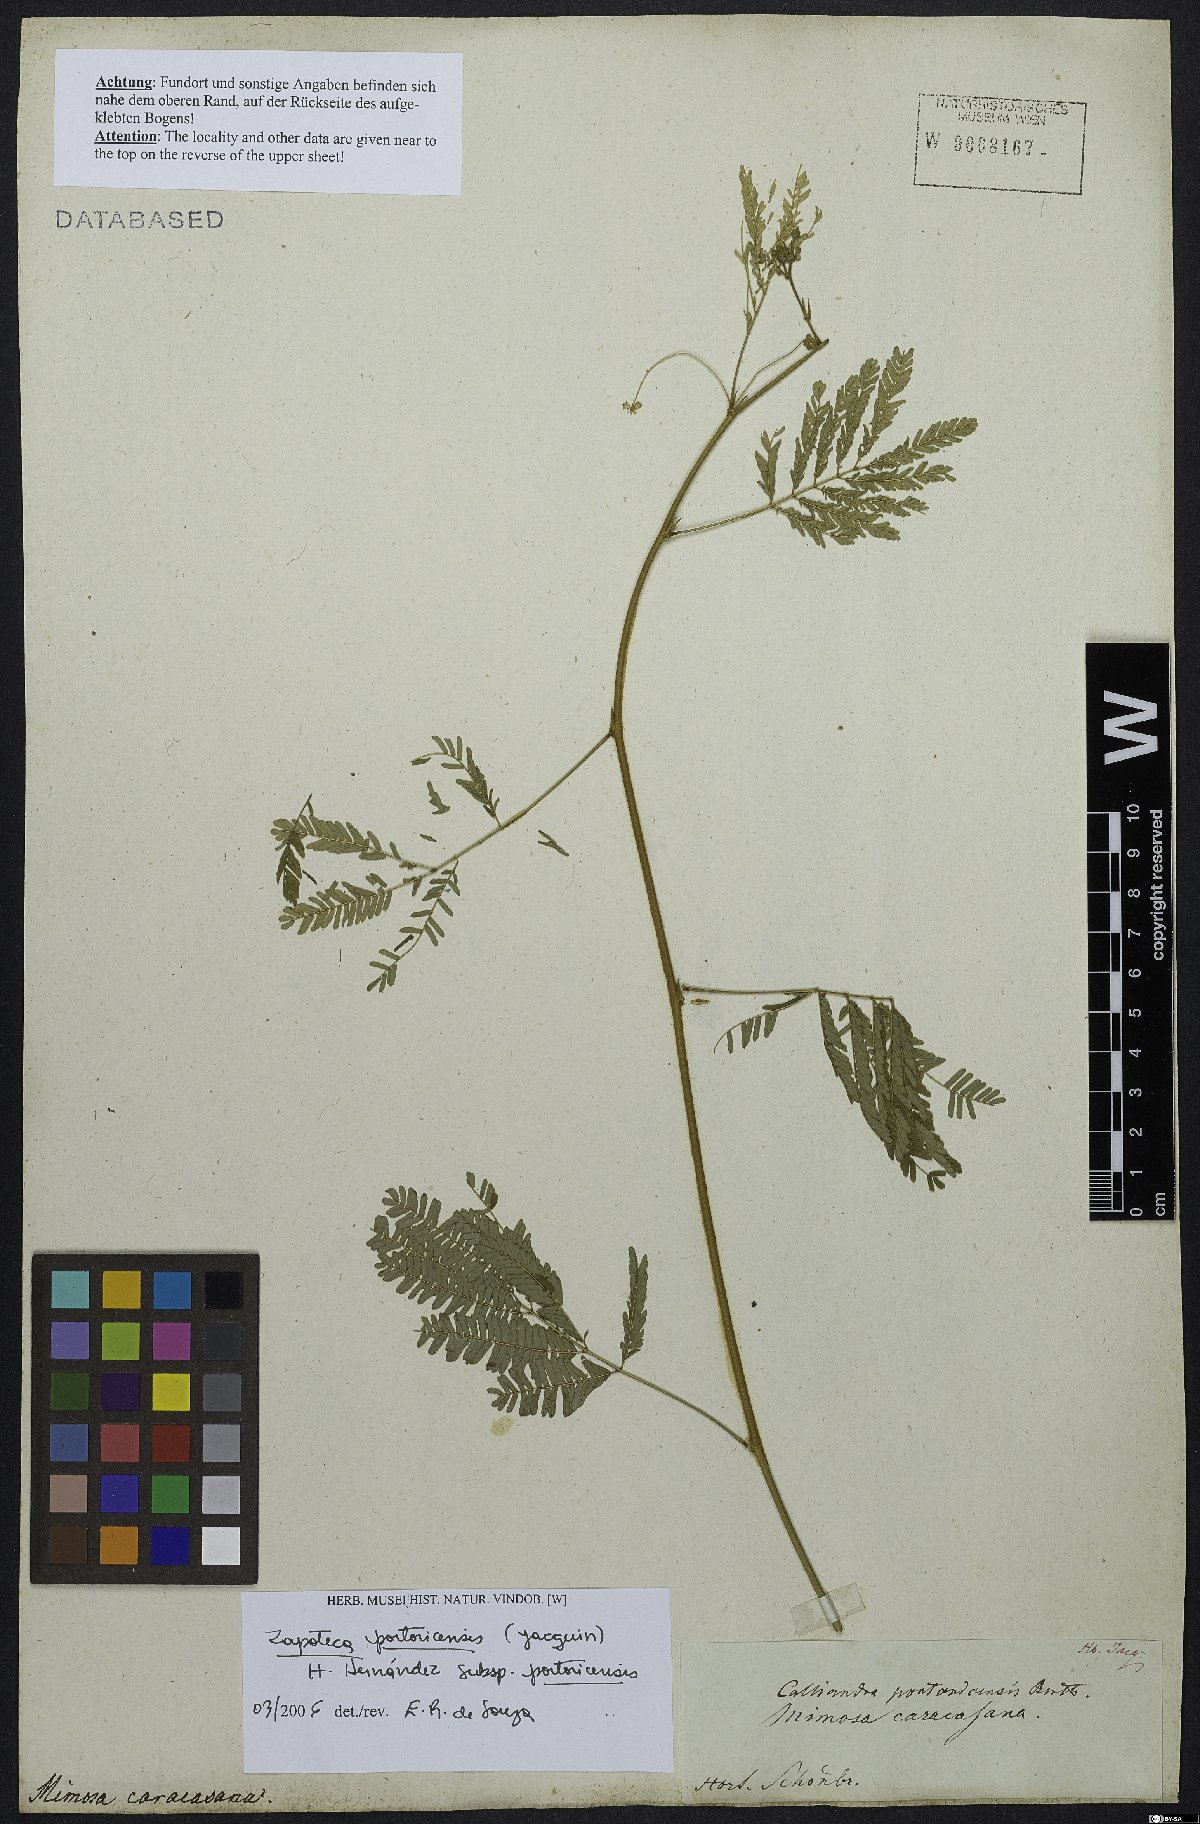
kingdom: Plantae
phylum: Tracheophyta
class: Magnoliopsida
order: Fabales
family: Fabaceae
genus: Zapoteca
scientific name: Zapoteca portoricensis
